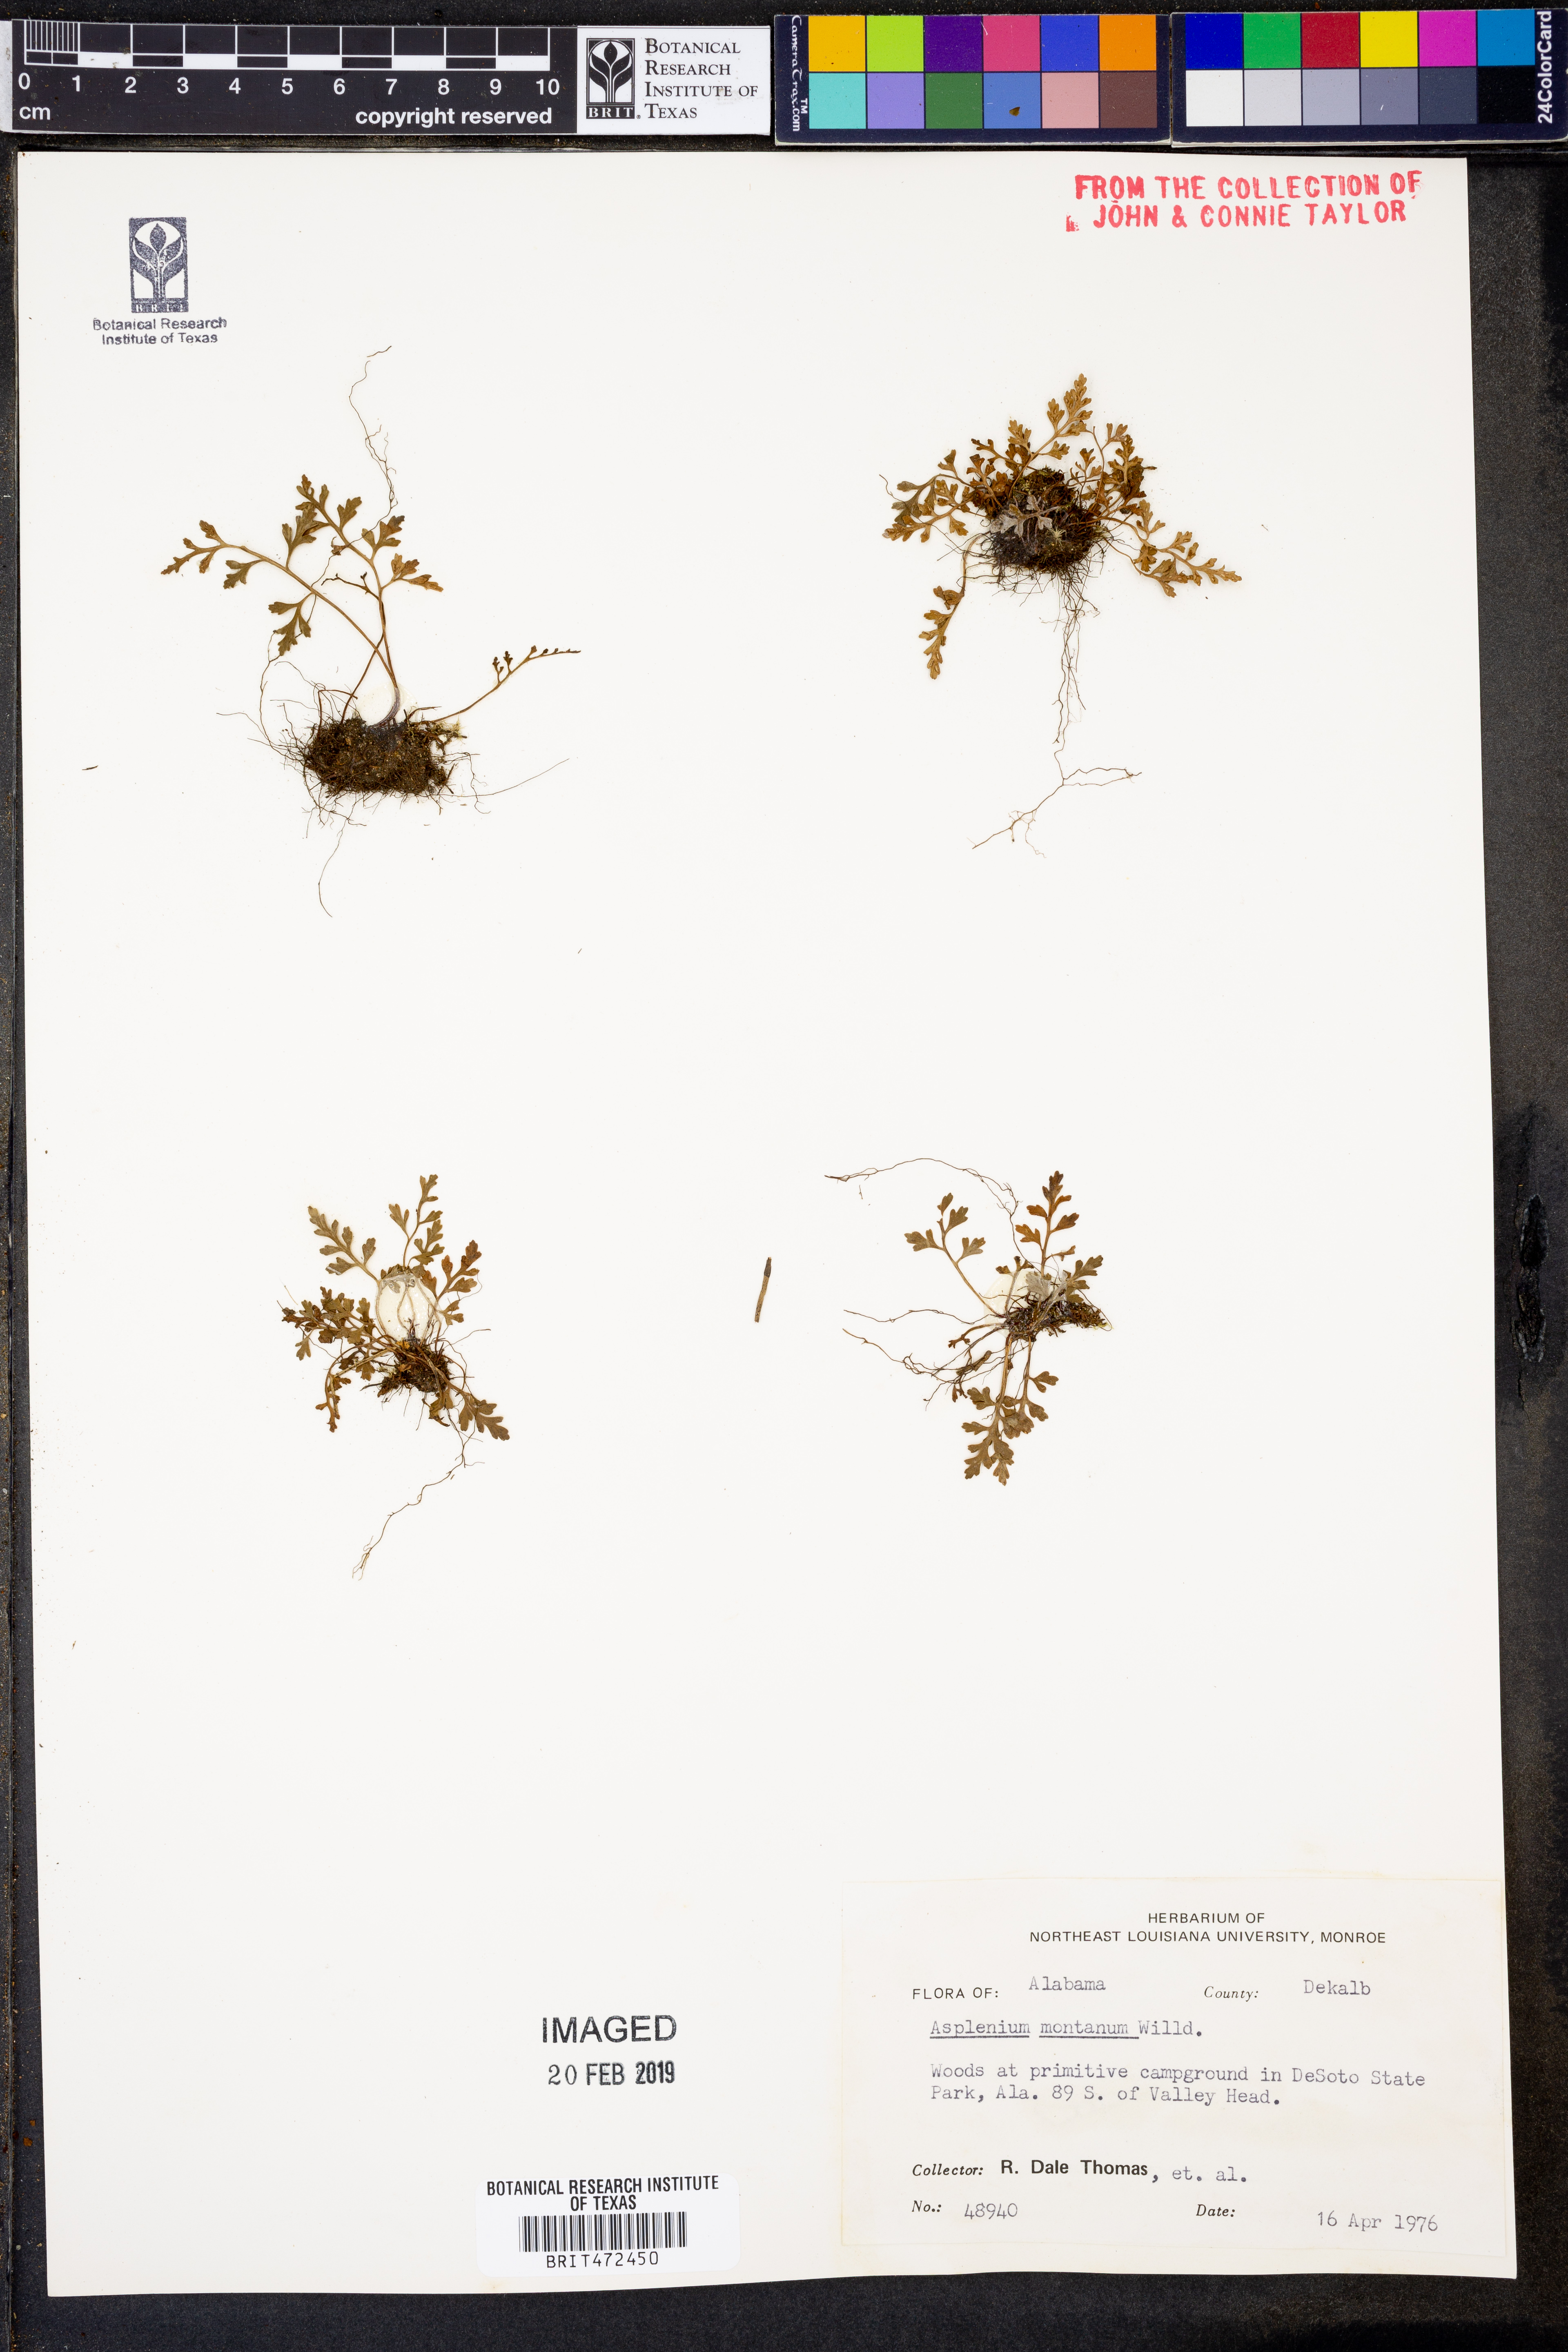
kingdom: Plantae
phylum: Tracheophyta
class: Polypodiopsida
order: Polypodiales
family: Aspleniaceae
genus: Asplenium
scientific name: Asplenium montanum
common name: Mountain spleenwort
